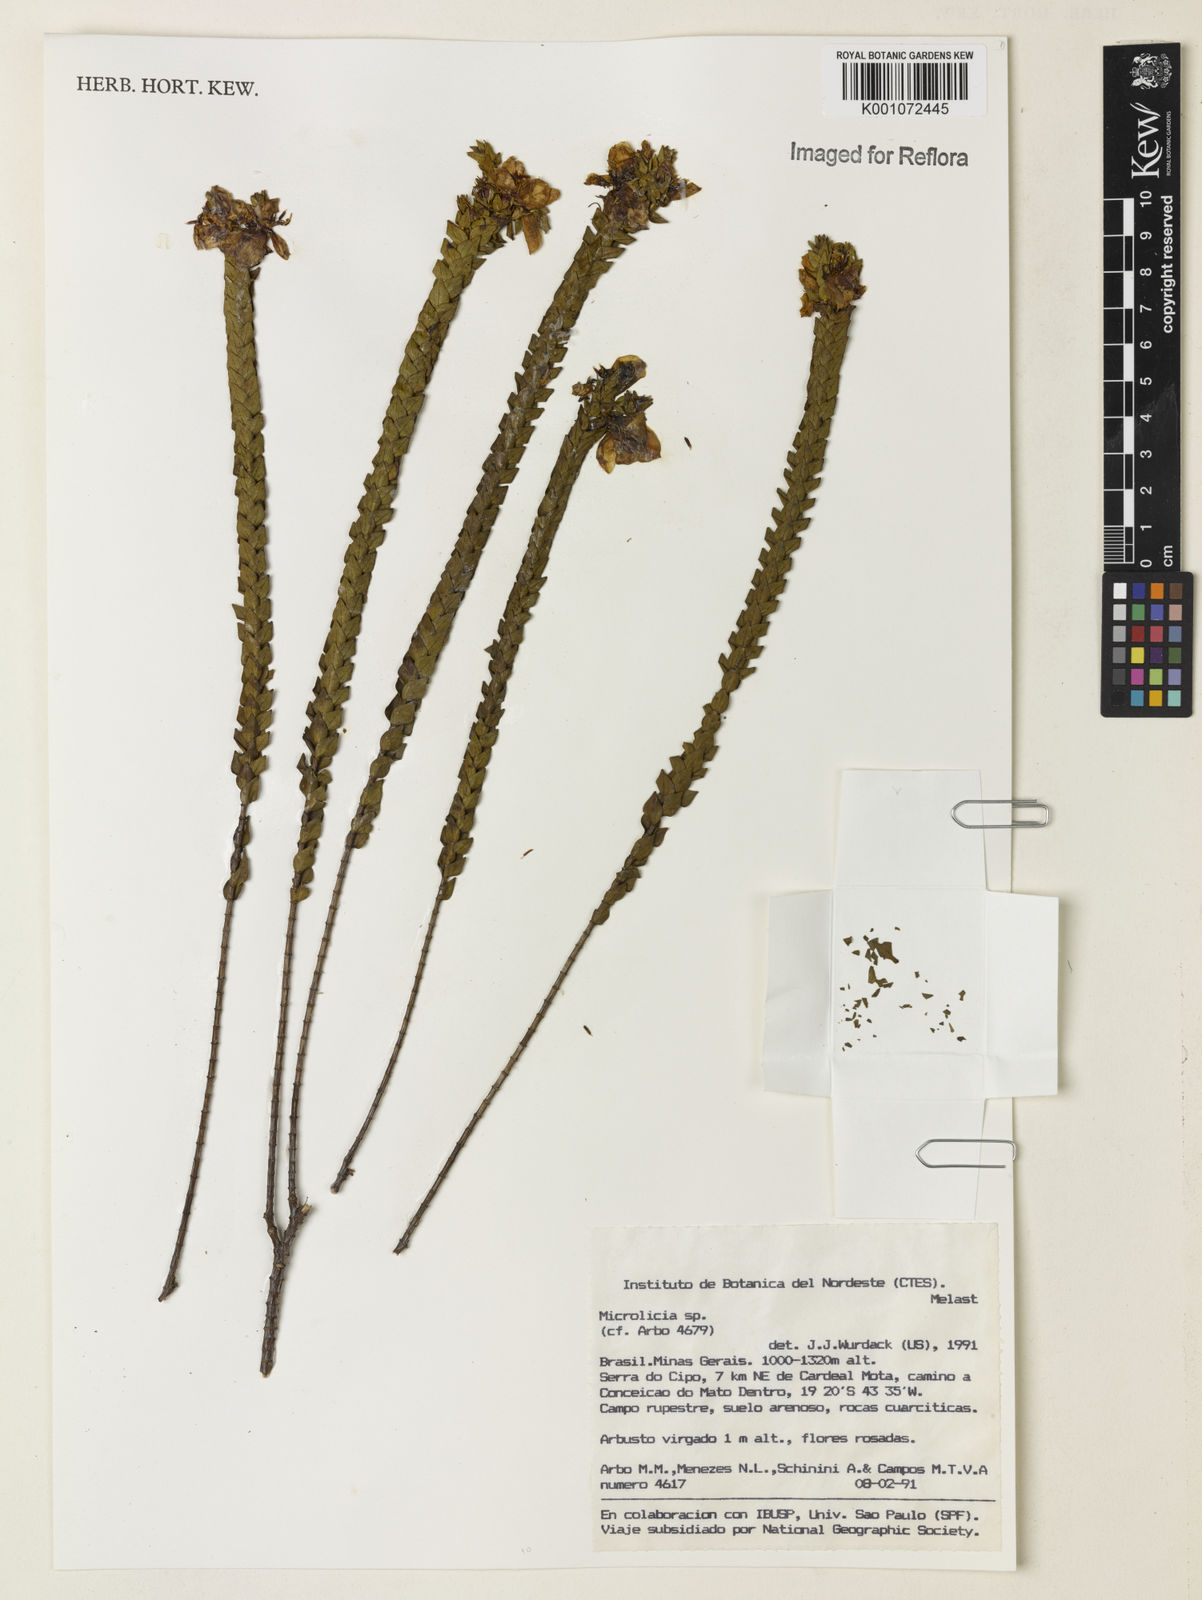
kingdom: Plantae
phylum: Tracheophyta
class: Magnoliopsida
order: Myrtales
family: Melastomataceae
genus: Microlicia
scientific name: Microlicia
